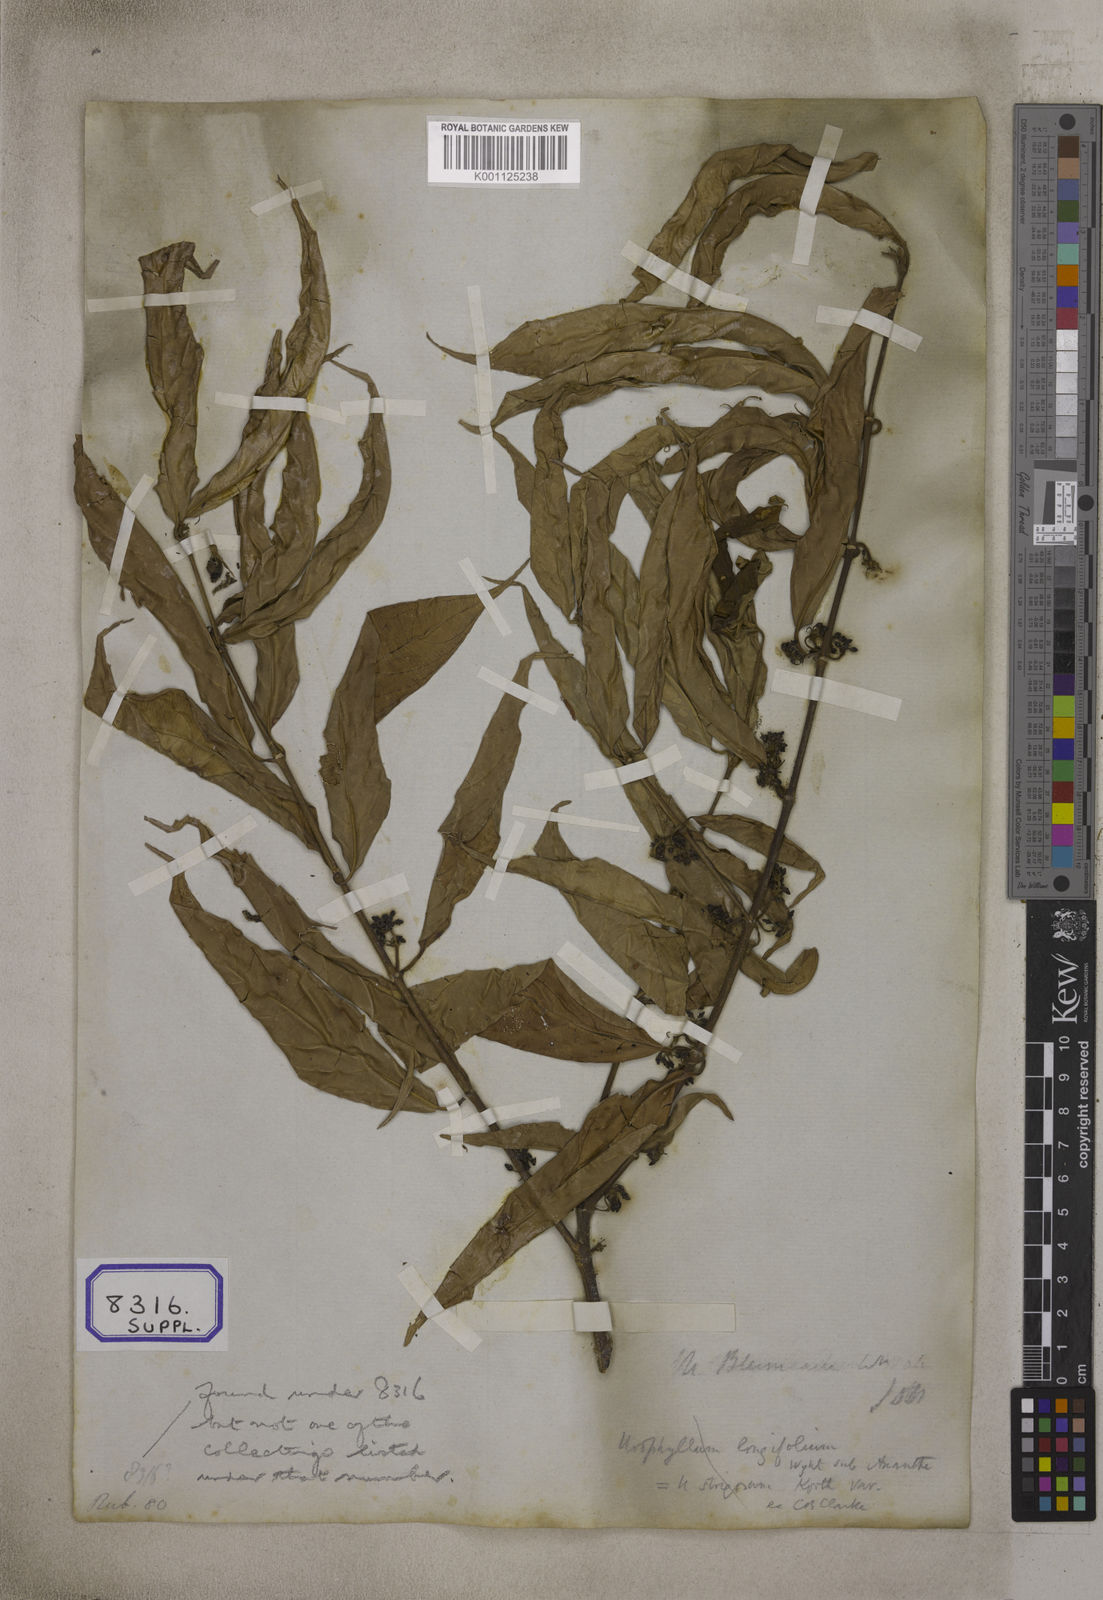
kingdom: Plantae
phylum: Tracheophyta
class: Magnoliopsida
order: Gentianales
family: Rubiaceae
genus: Urophyllum
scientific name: Urophyllum glabrum
